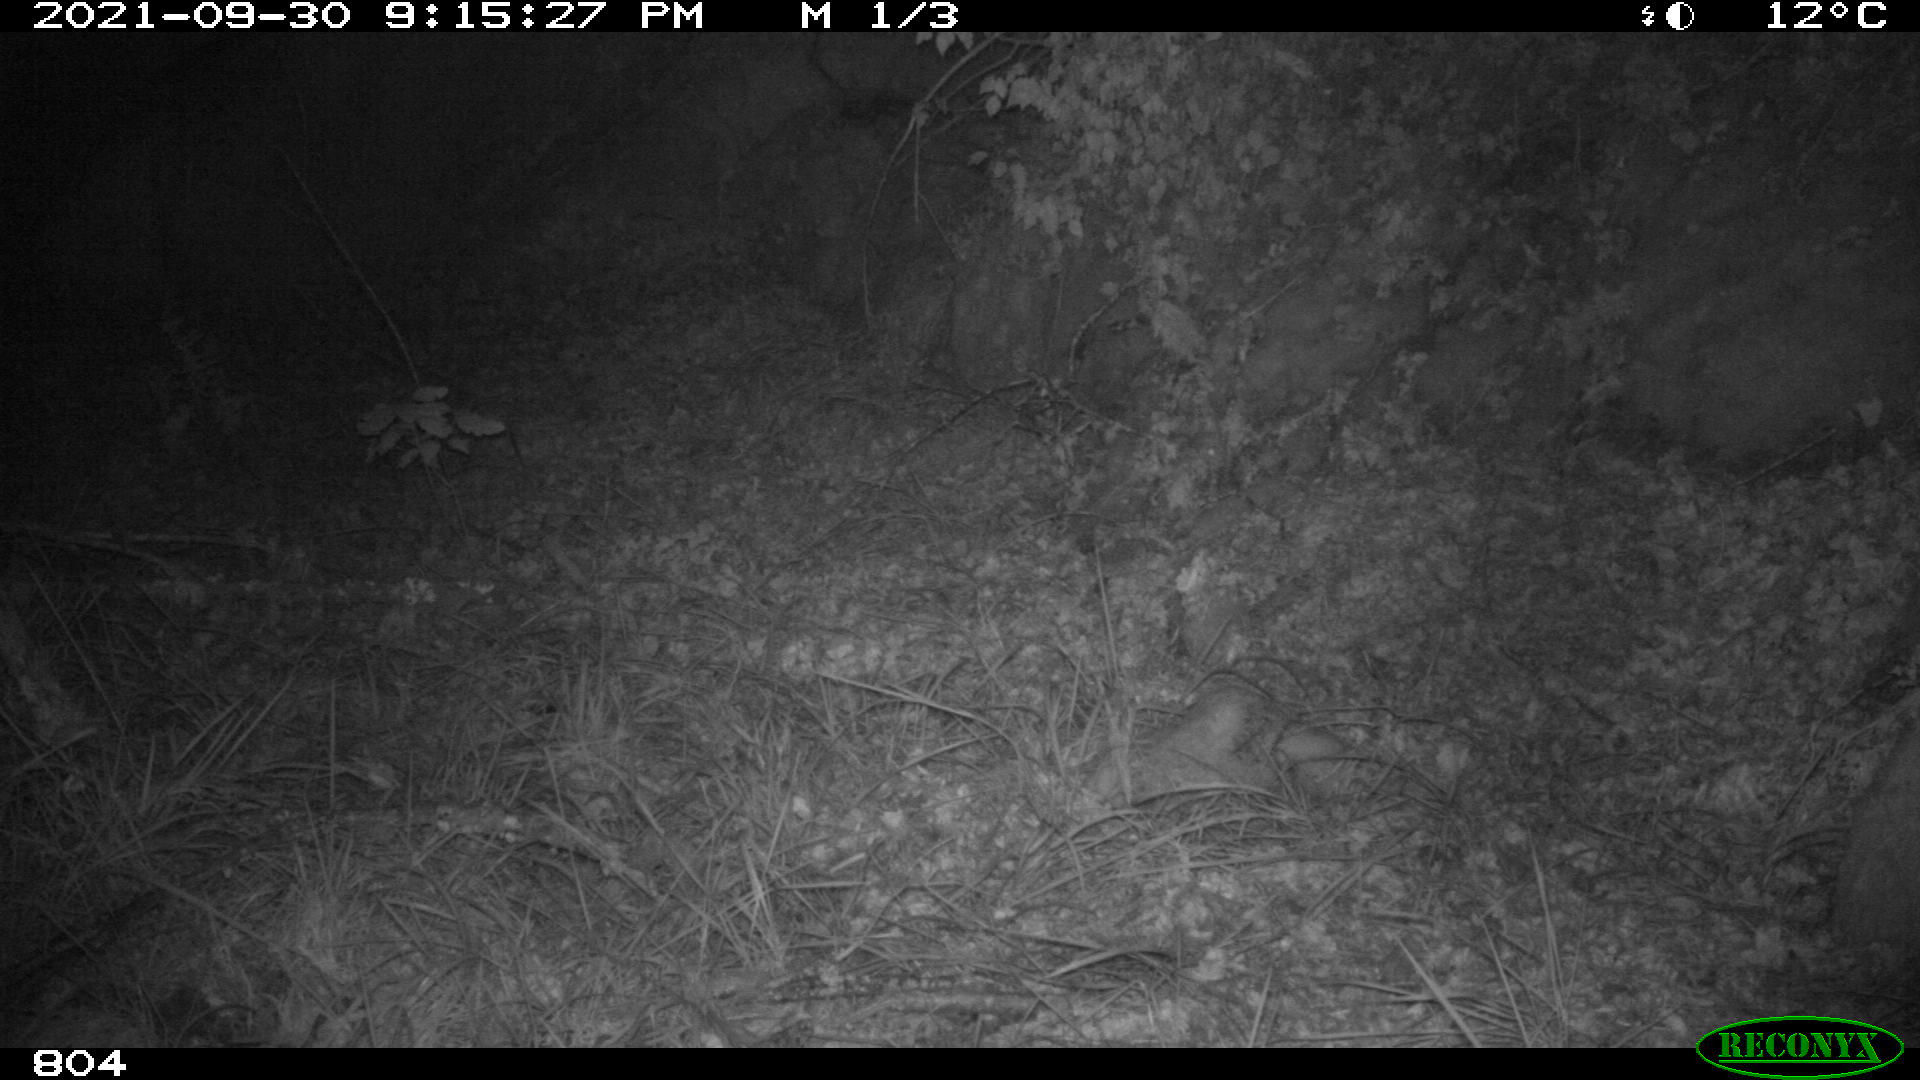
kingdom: Animalia
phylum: Chordata
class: Mammalia
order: Artiodactyla
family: Suidae
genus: Sus
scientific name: Sus scrofa
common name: Wild boar
